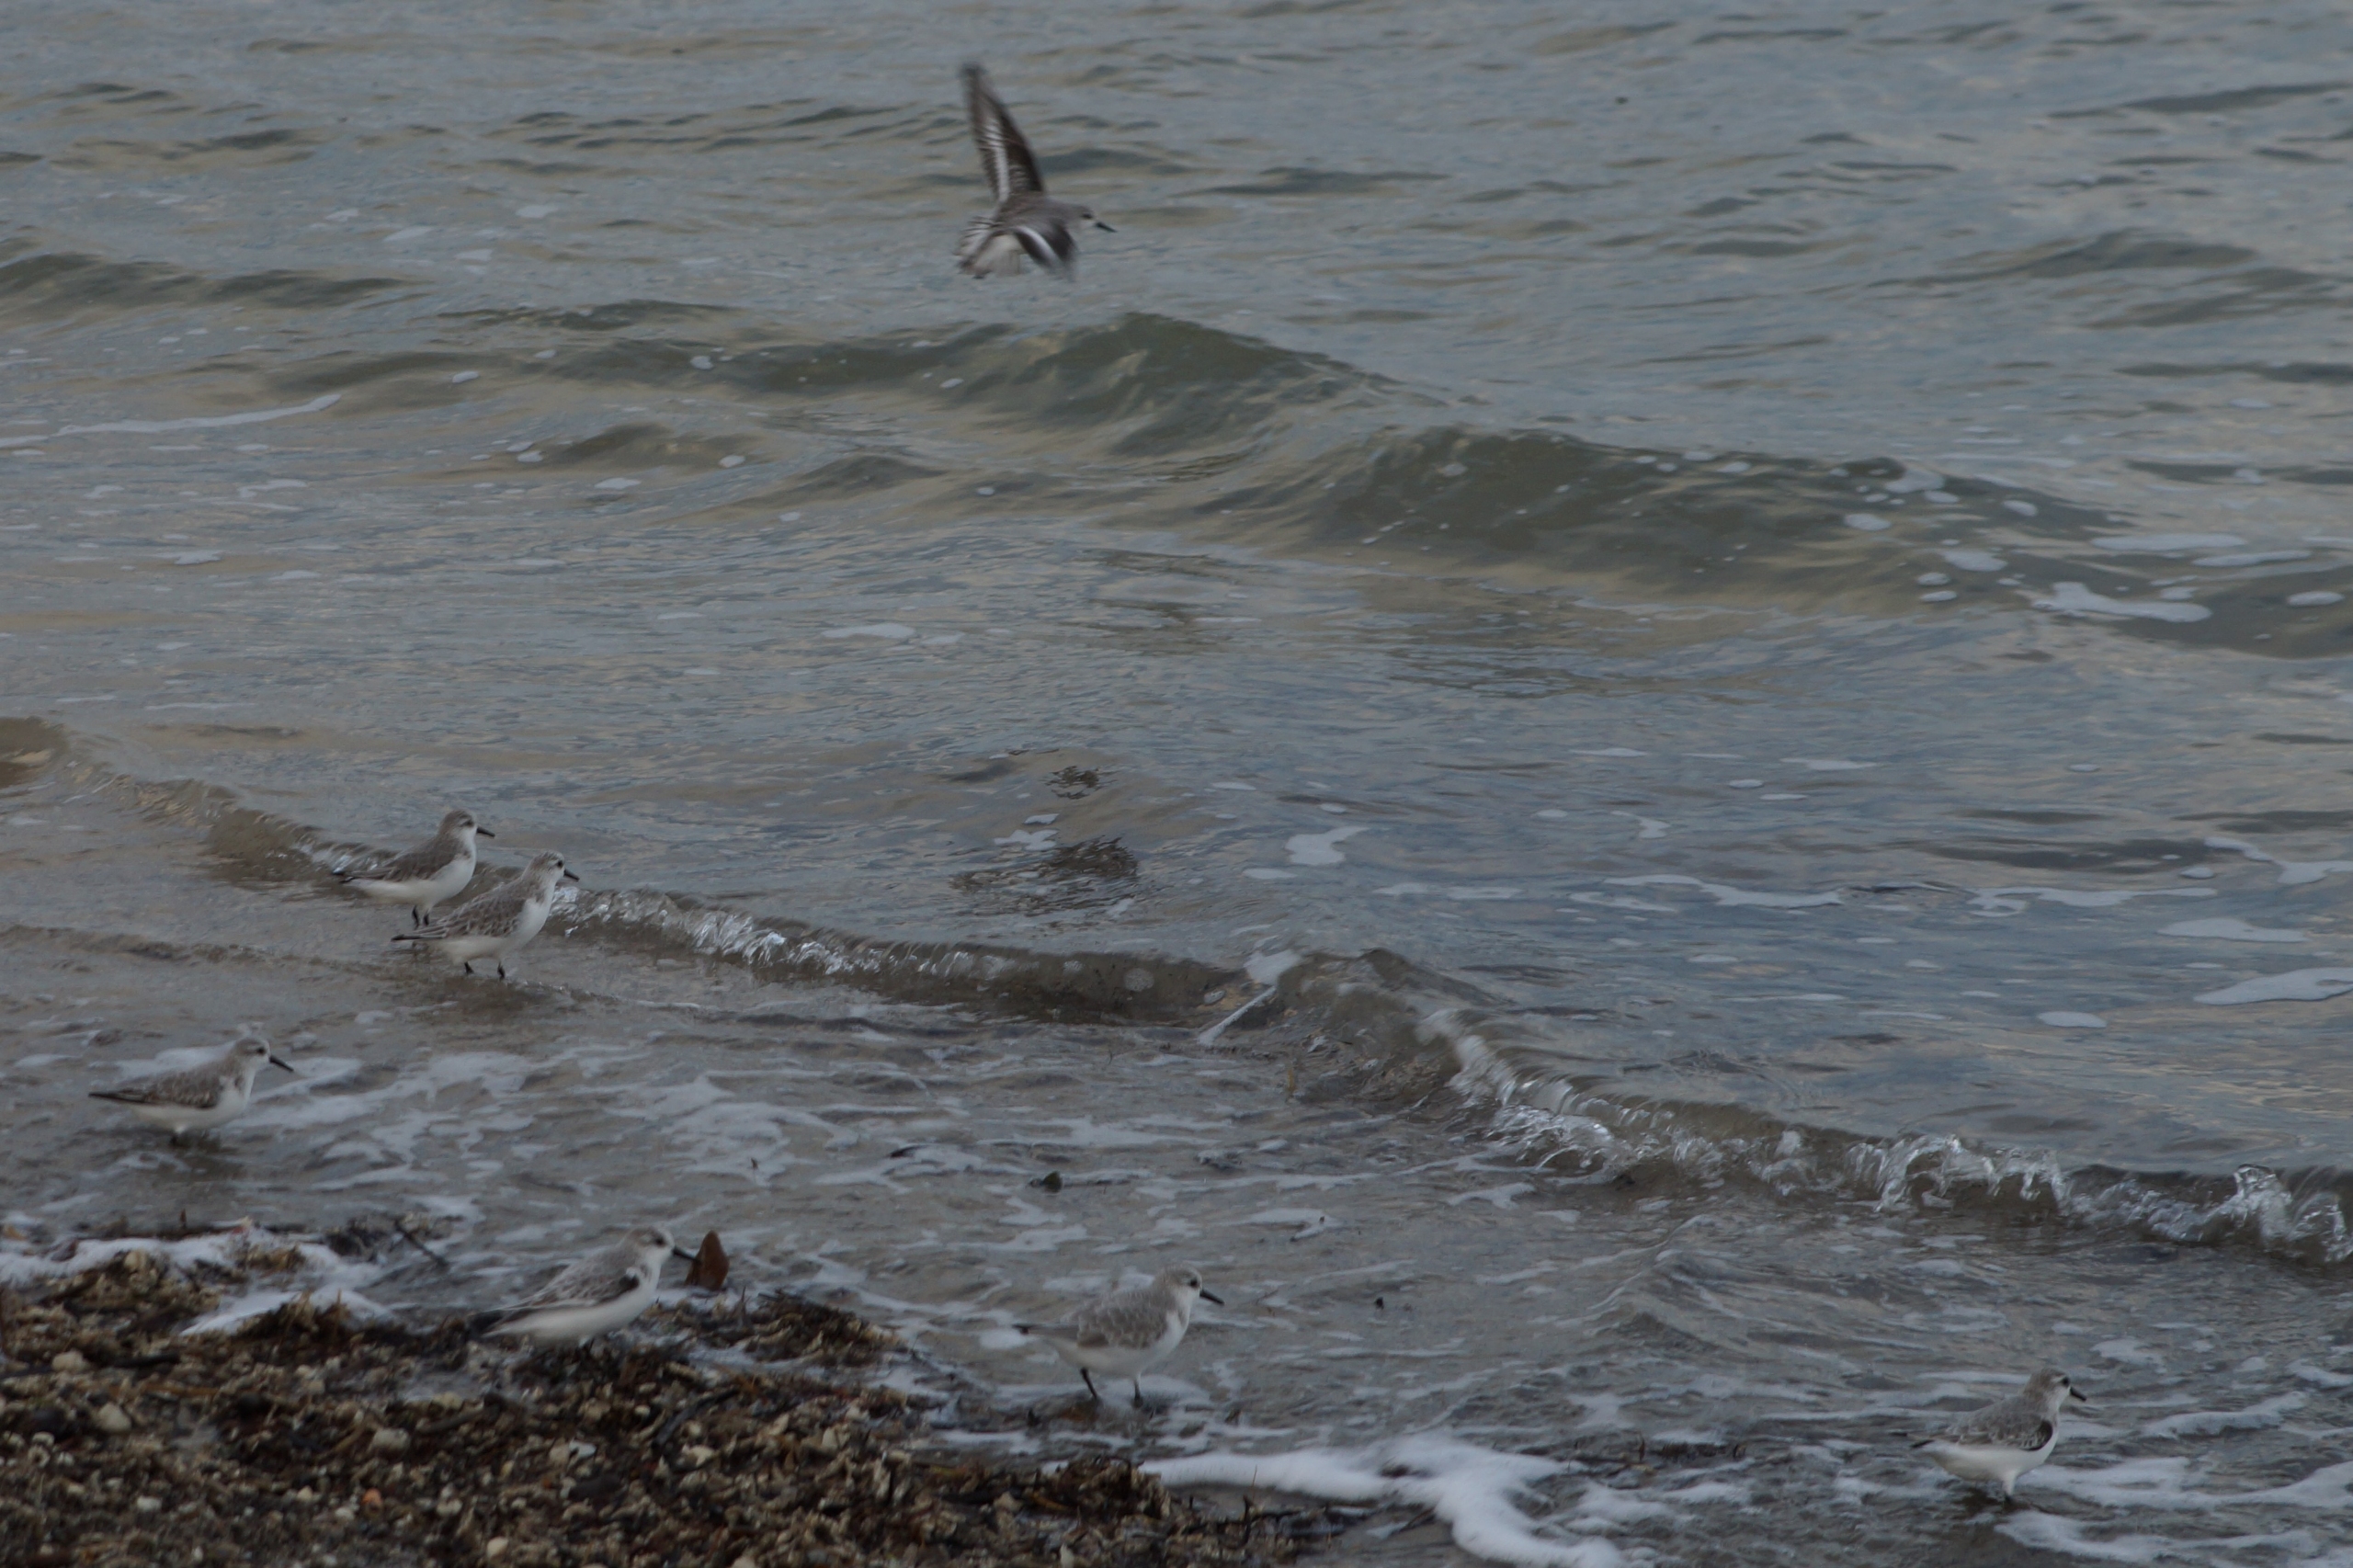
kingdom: Animalia
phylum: Chordata
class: Aves
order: Charadriiformes
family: Scolopacidae
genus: Calidris
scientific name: Calidris alba
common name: Sandløber
